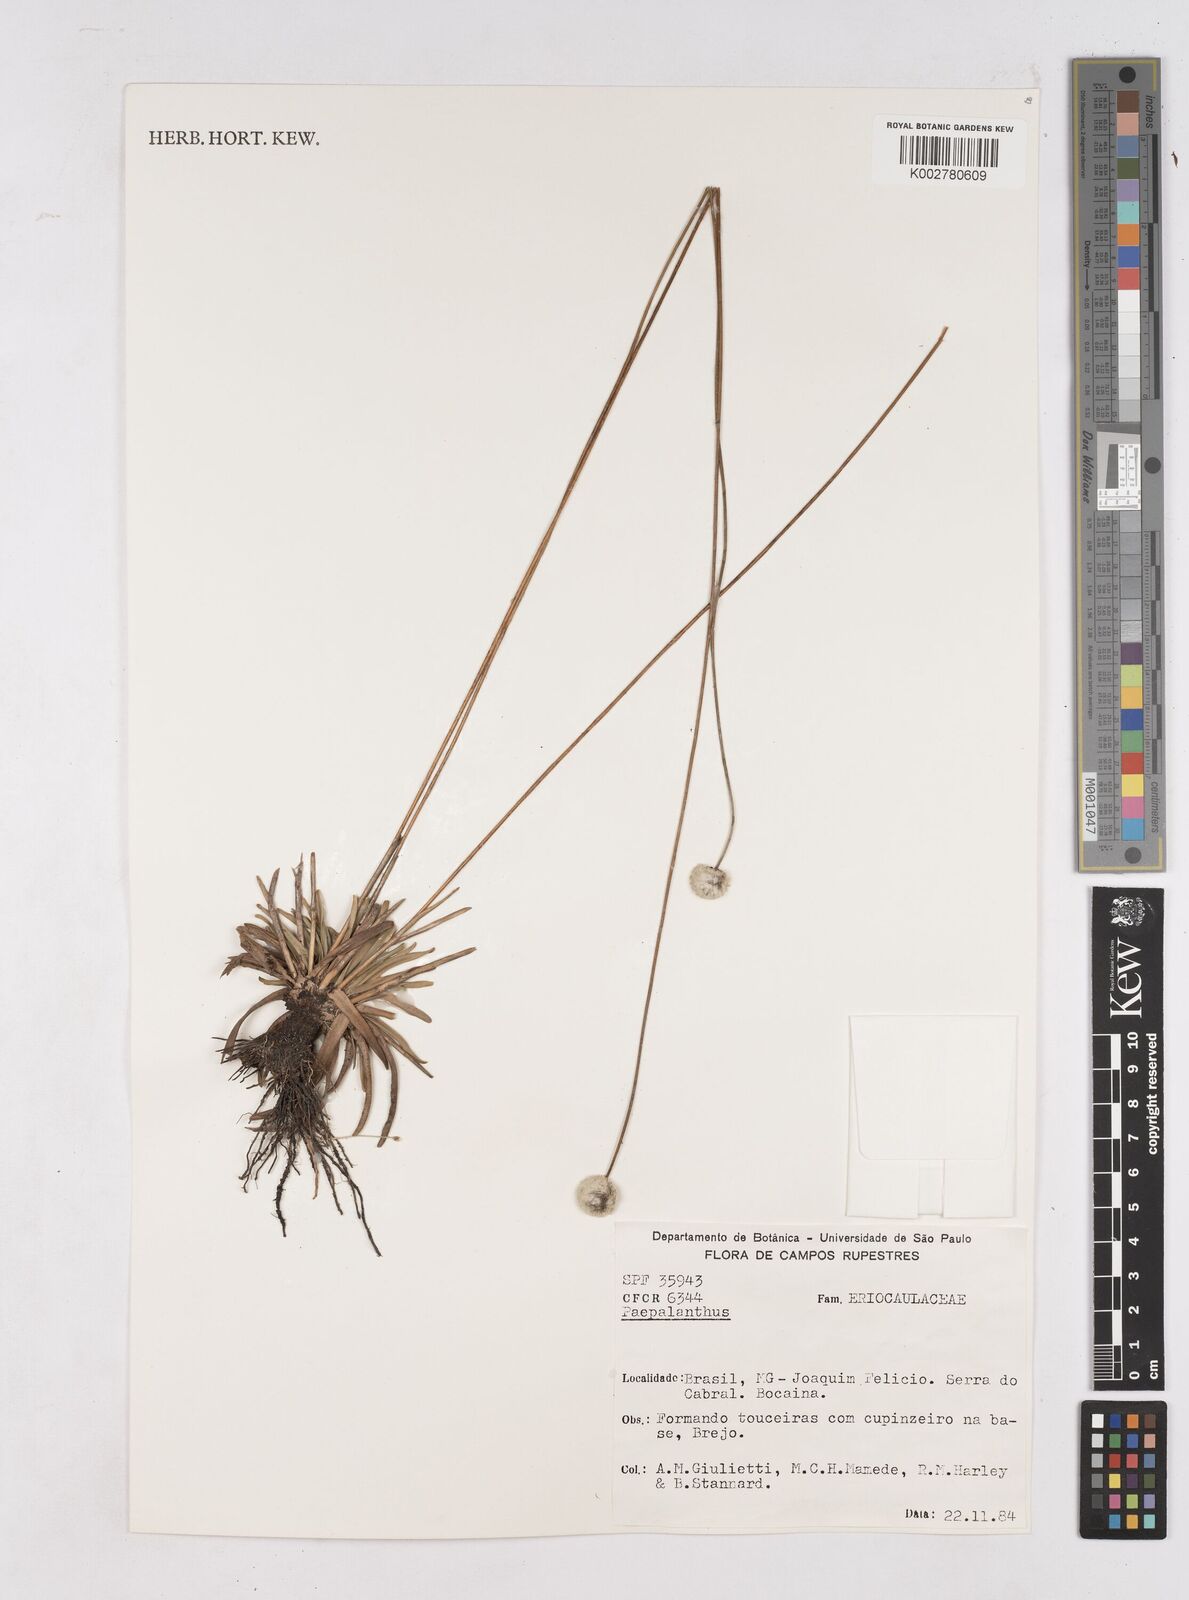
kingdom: Plantae
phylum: Tracheophyta
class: Liliopsida
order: Poales
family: Eriocaulaceae
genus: Paepalanthus
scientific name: Paepalanthus
